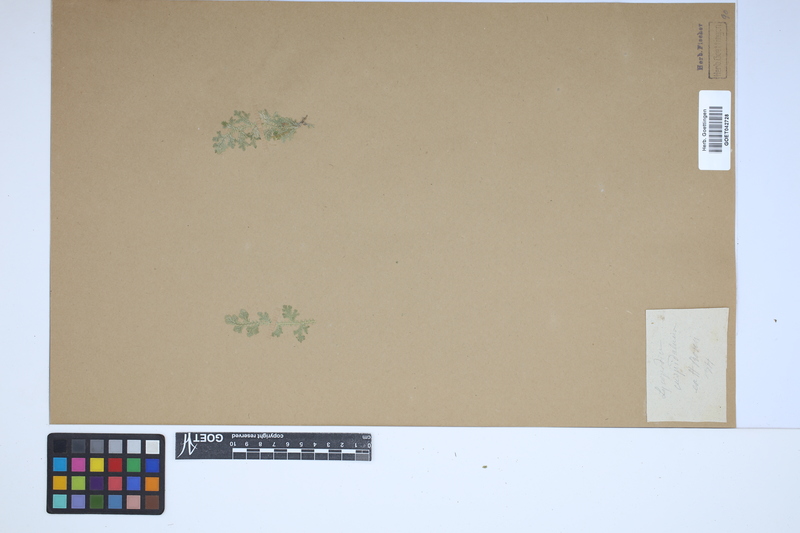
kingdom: Plantae
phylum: Tracheophyta
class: Lycopodiopsida
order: Selaginellales
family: Selaginellaceae
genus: Selaginella
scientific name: Selaginella pallescens
